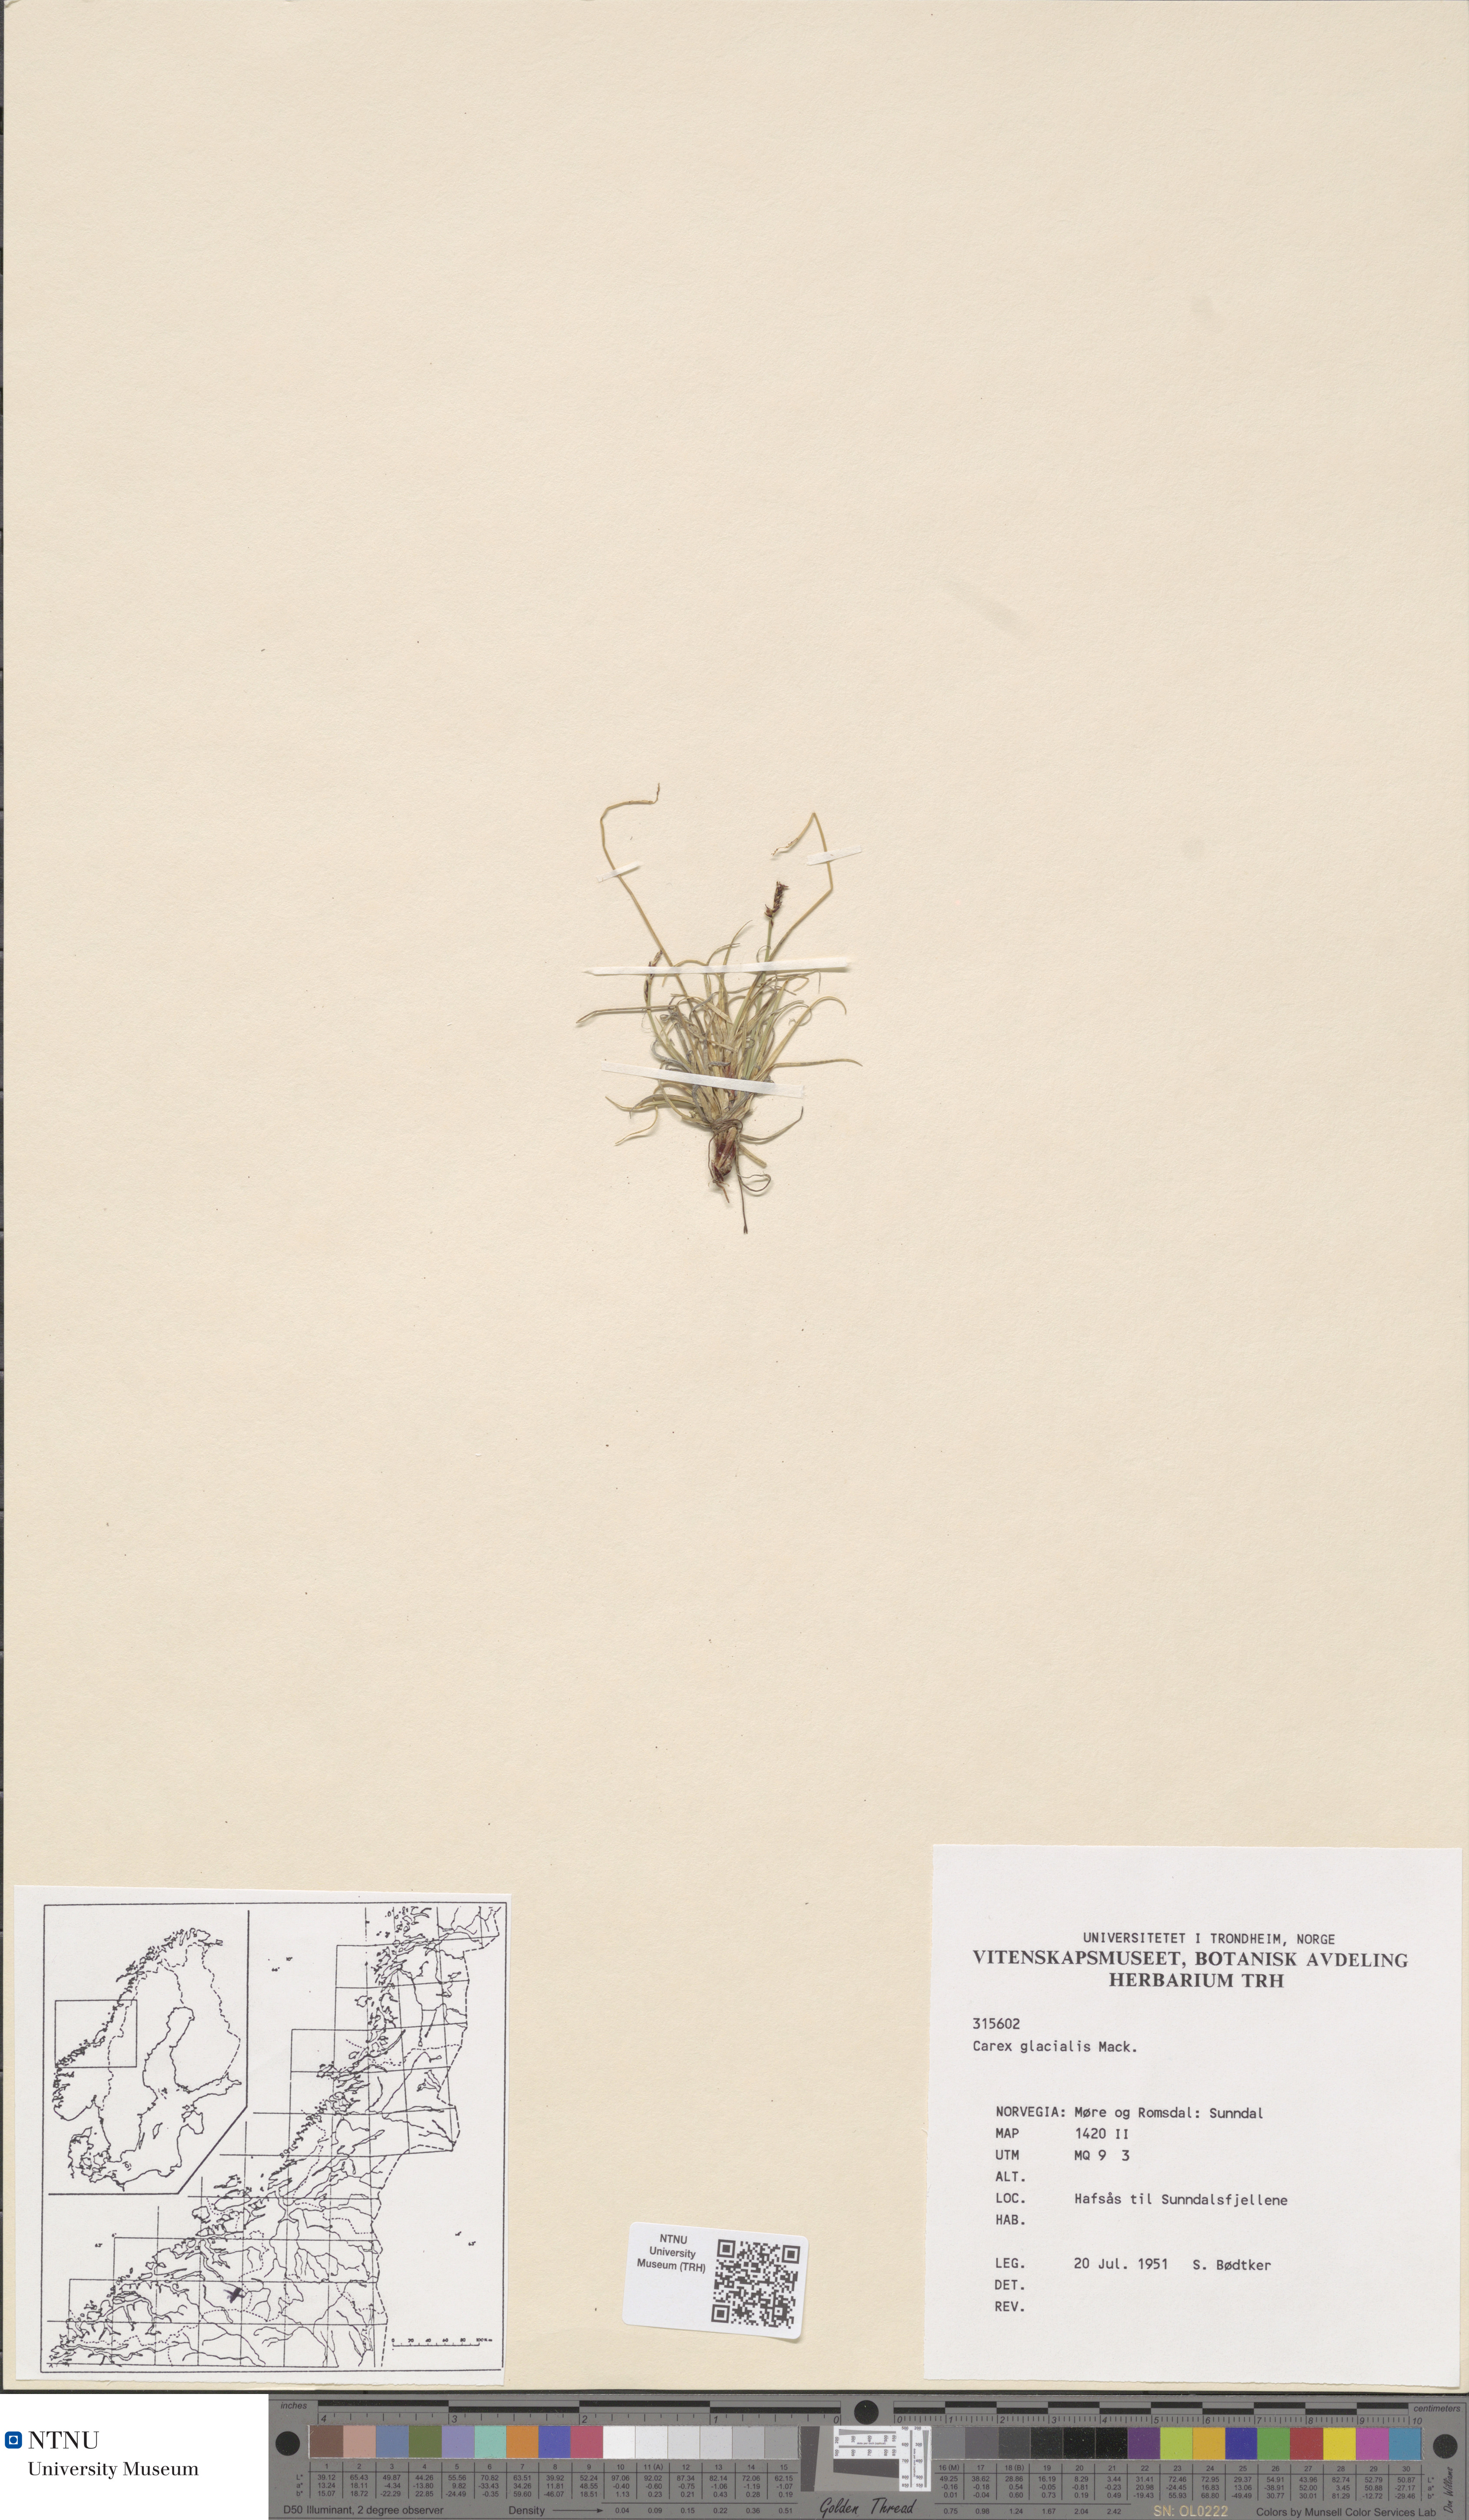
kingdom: Plantae
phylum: Tracheophyta
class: Liliopsida
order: Poales
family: Cyperaceae
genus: Carex
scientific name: Carex glacialis
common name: Newfoundland sedge
